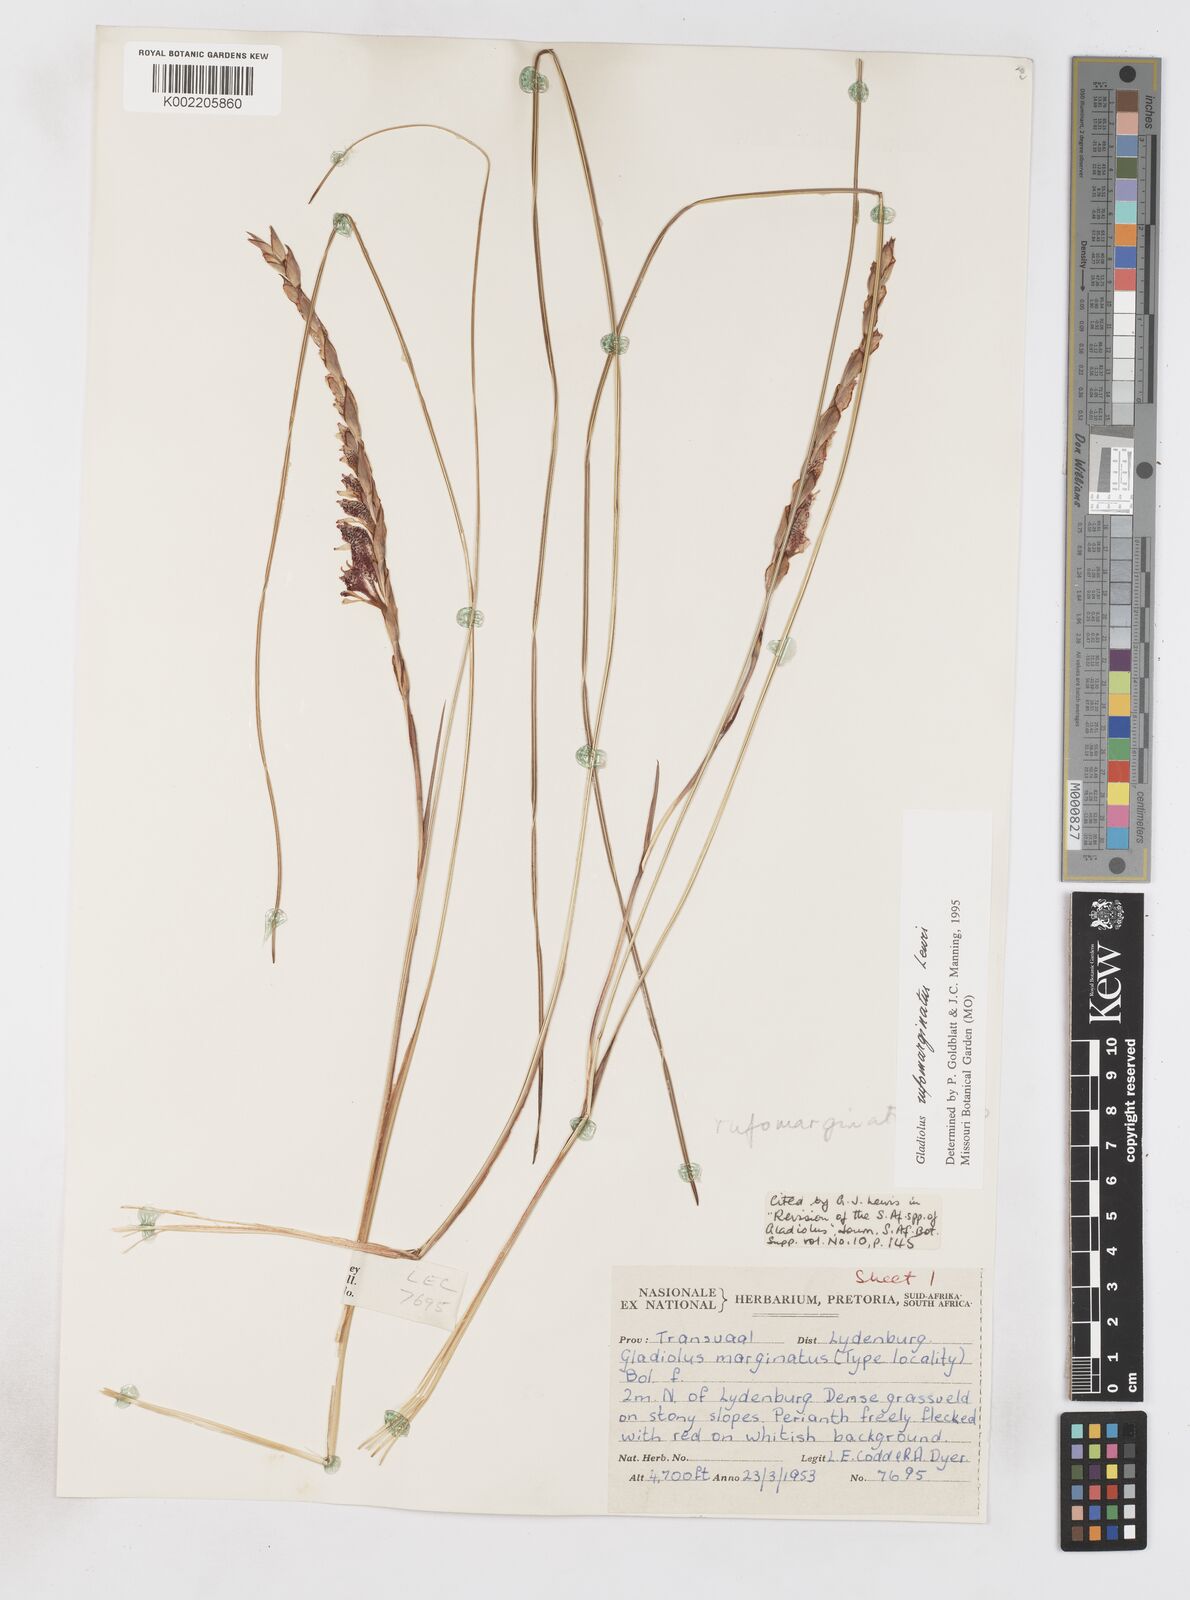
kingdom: Plantae
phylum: Tracheophyta
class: Liliopsida
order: Asparagales
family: Iridaceae
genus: Gladiolus
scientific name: Gladiolus rufomarginatus
